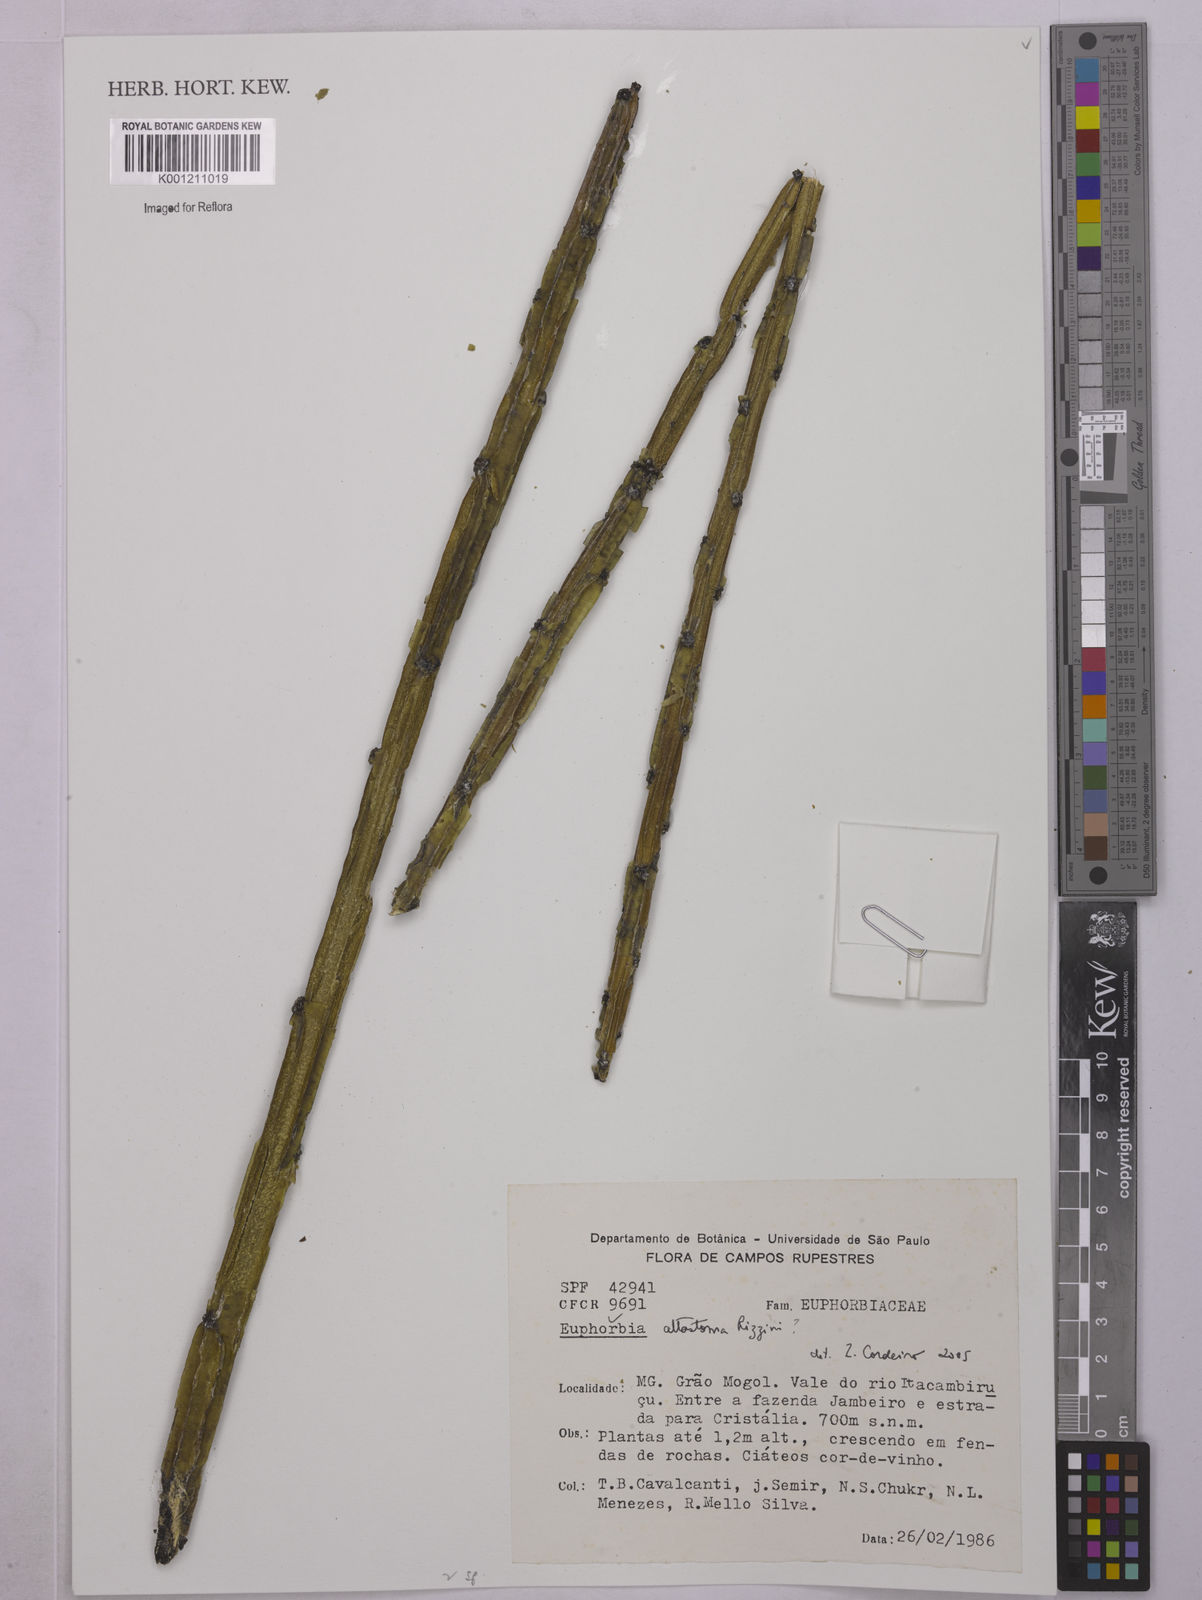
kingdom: Plantae
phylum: Tracheophyta
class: Magnoliopsida
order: Malpighiales
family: Euphorbiaceae
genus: Euphorbia
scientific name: Euphorbia
